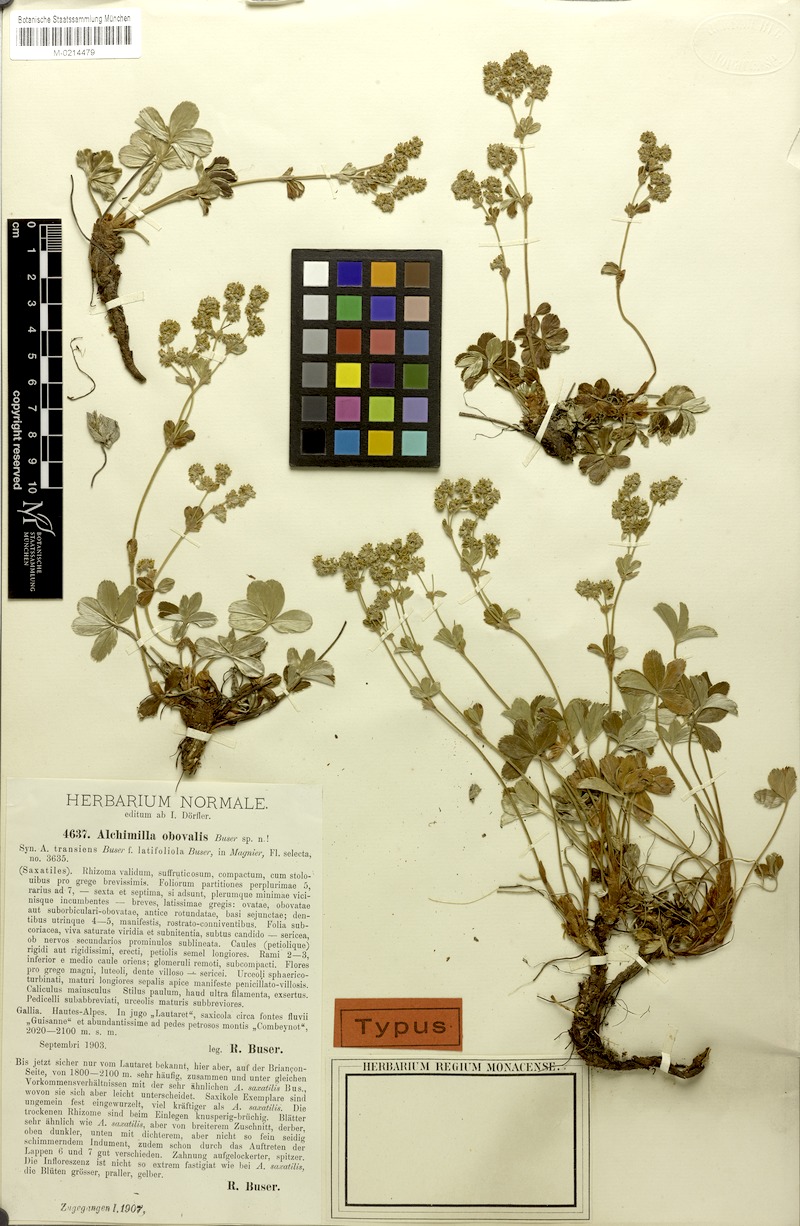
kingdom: Plantae
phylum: Tracheophyta
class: Magnoliopsida
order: Rosales
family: Rosaceae
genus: Alchemilla
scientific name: Alchemilla transiens
